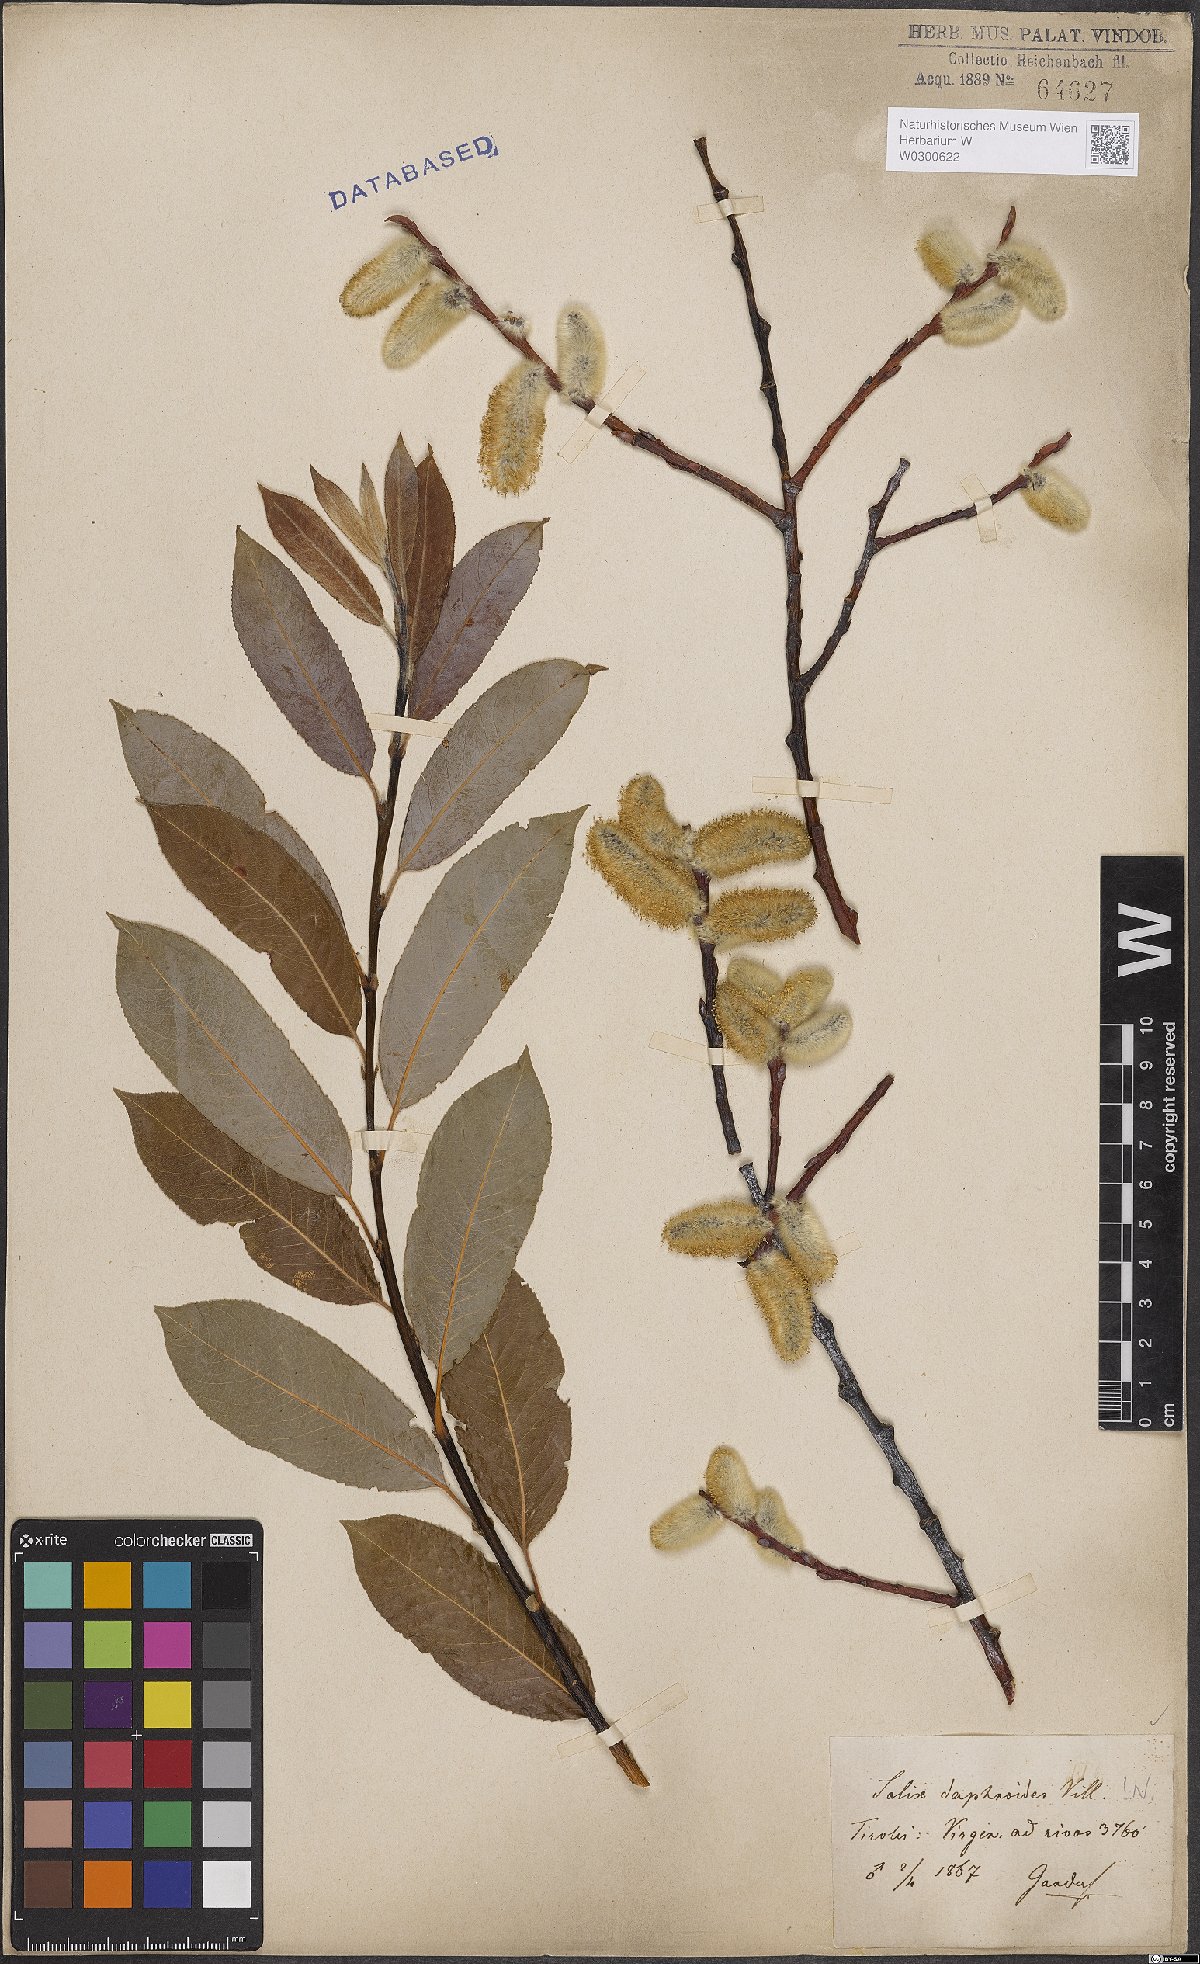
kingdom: Plantae
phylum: Tracheophyta
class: Magnoliopsida
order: Malpighiales
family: Salicaceae
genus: Salix
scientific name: Salix daphnoides
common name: European violet-willow
